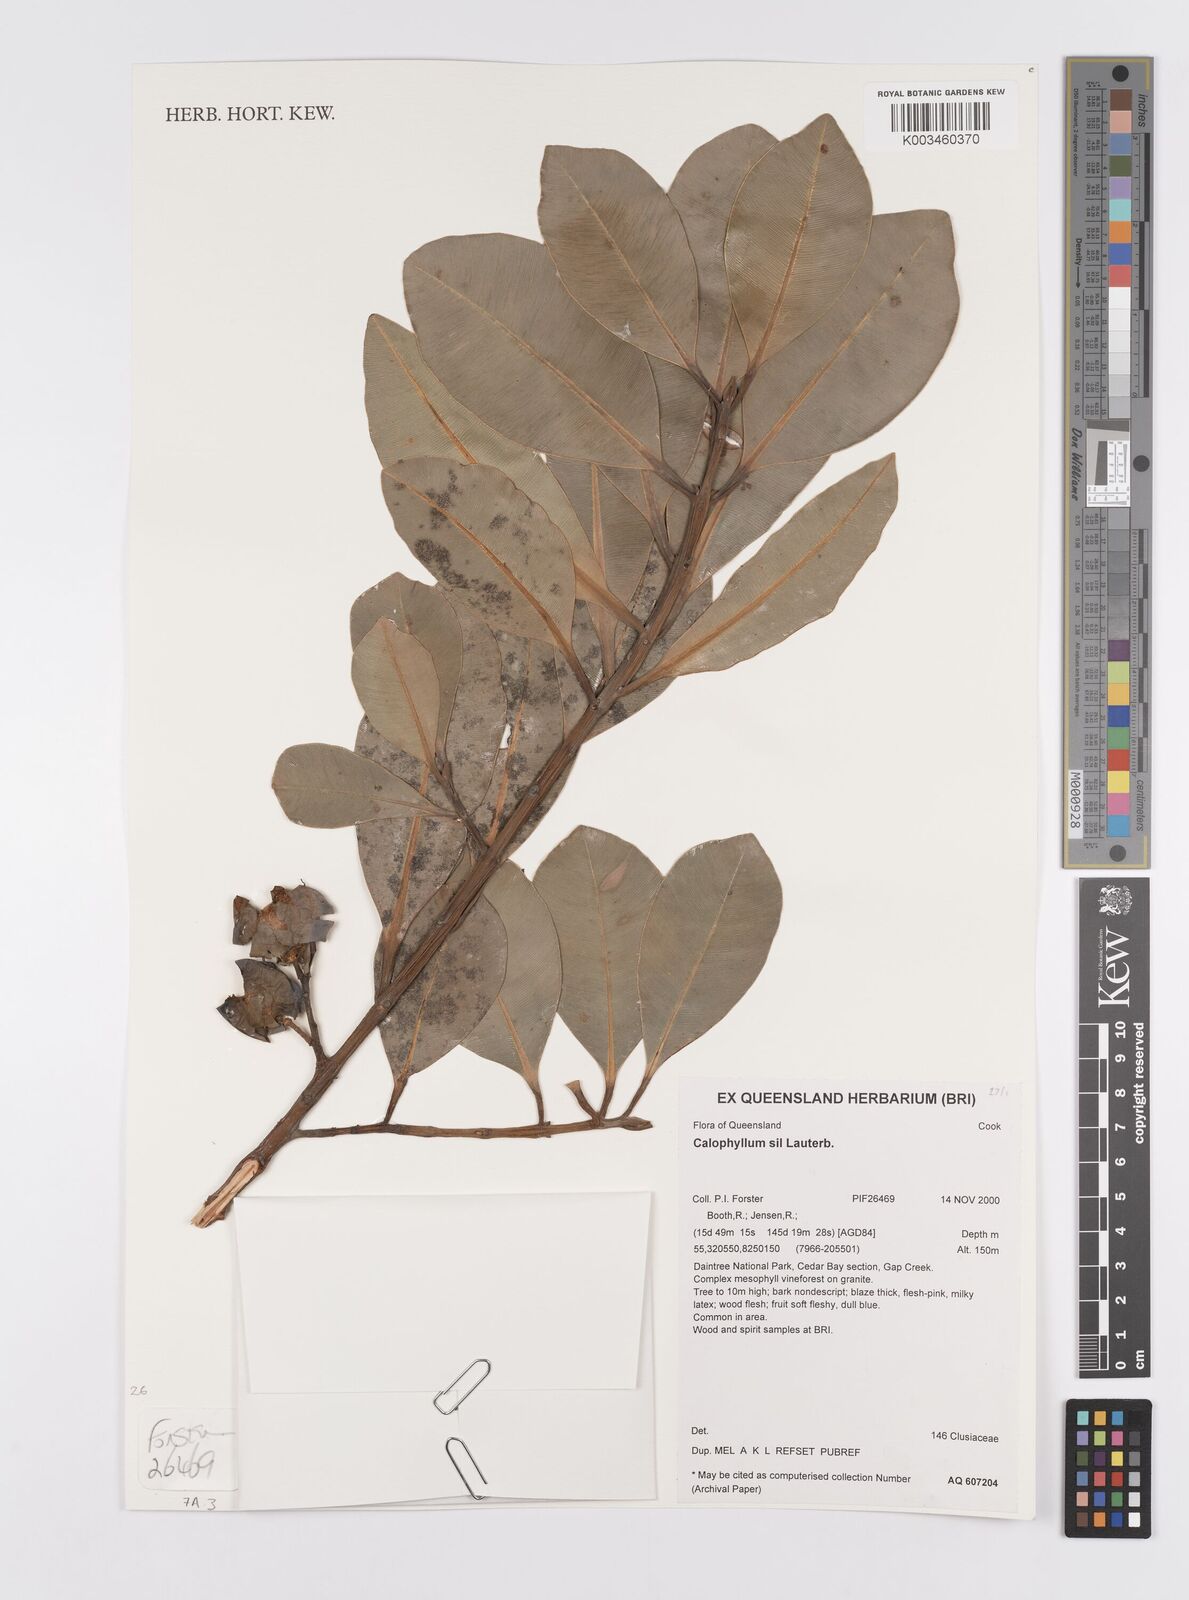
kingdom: Plantae
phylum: Tracheophyta
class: Magnoliopsida
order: Malpighiales
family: Calophyllaceae
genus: Calophyllum
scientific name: Calophyllum sil
